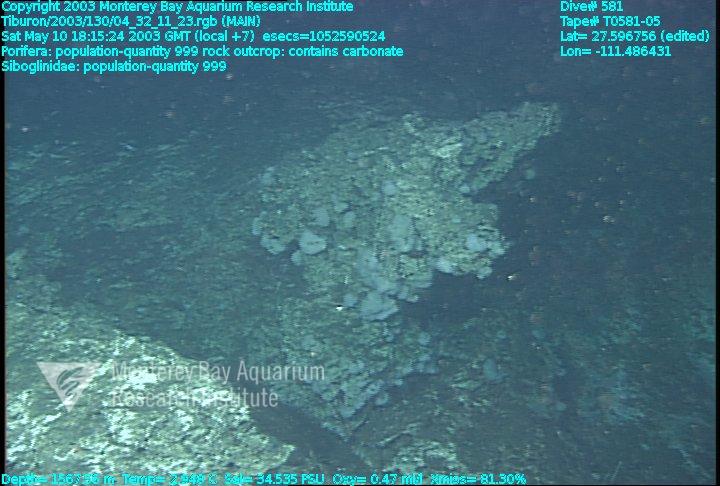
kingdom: Animalia
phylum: Porifera
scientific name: Porifera
